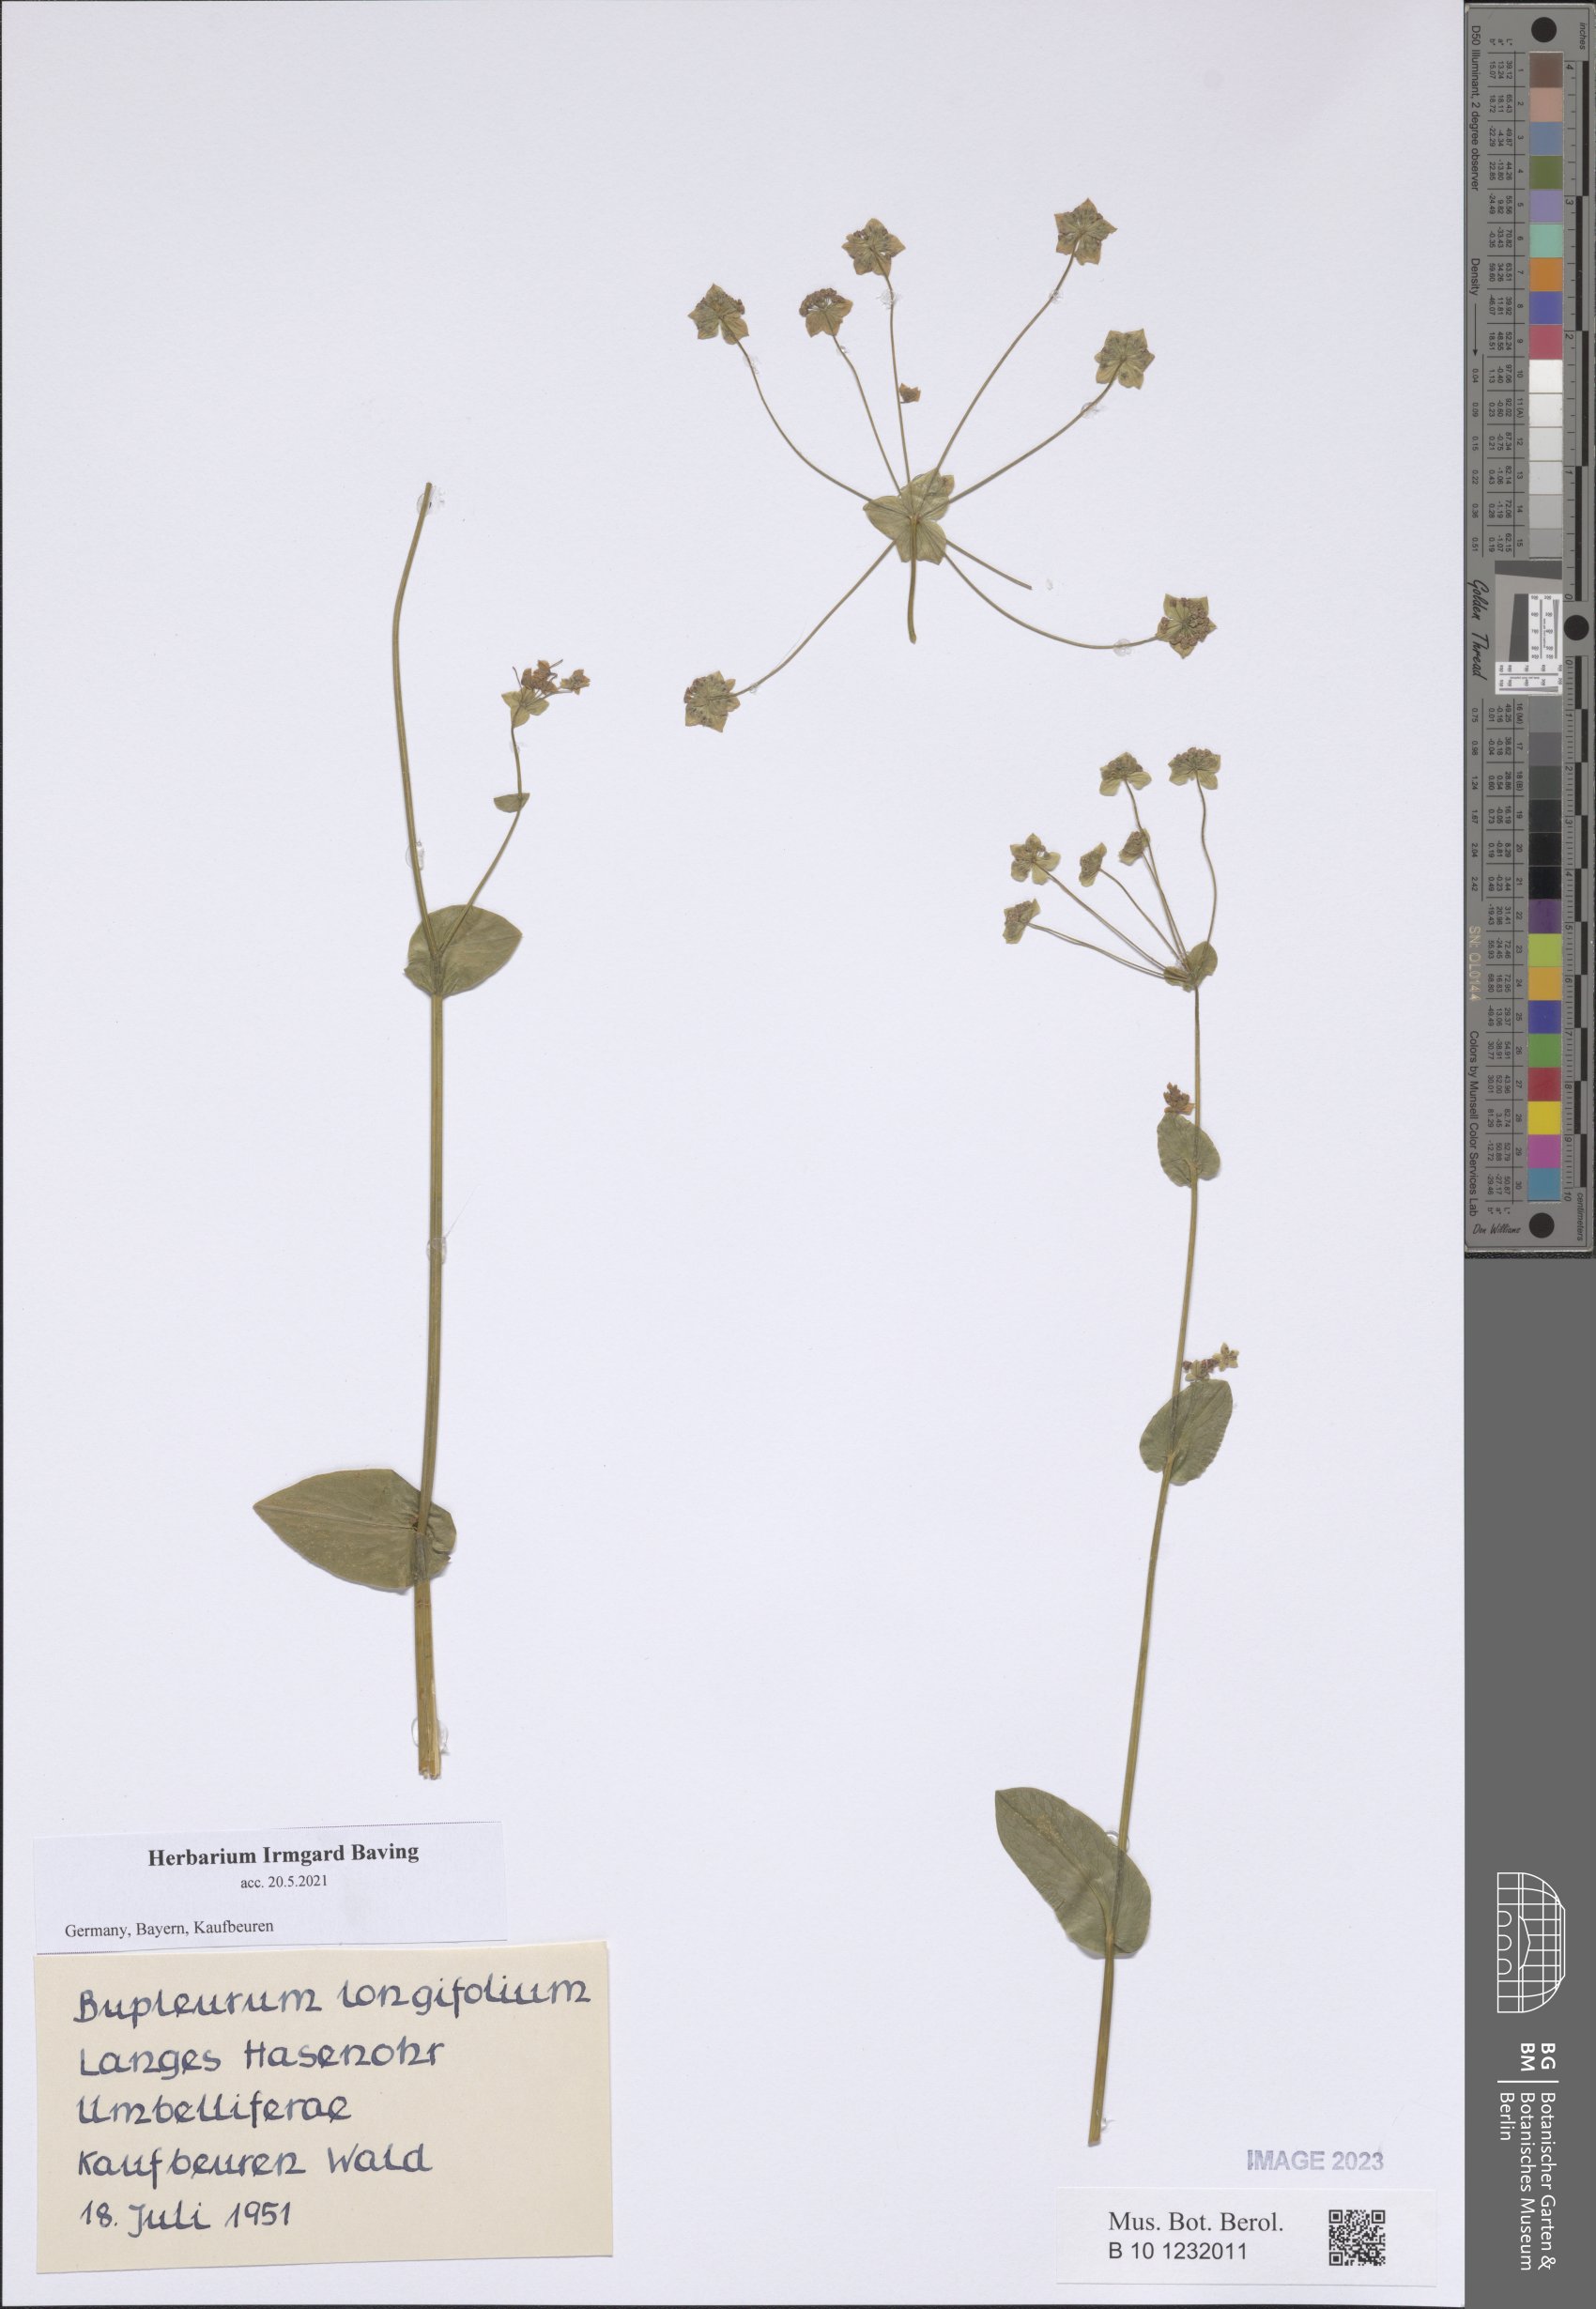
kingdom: Plantae
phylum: Tracheophyta
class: Magnoliopsida
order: Apiales
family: Apiaceae
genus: Bupleurum
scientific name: Bupleurum longifolium
